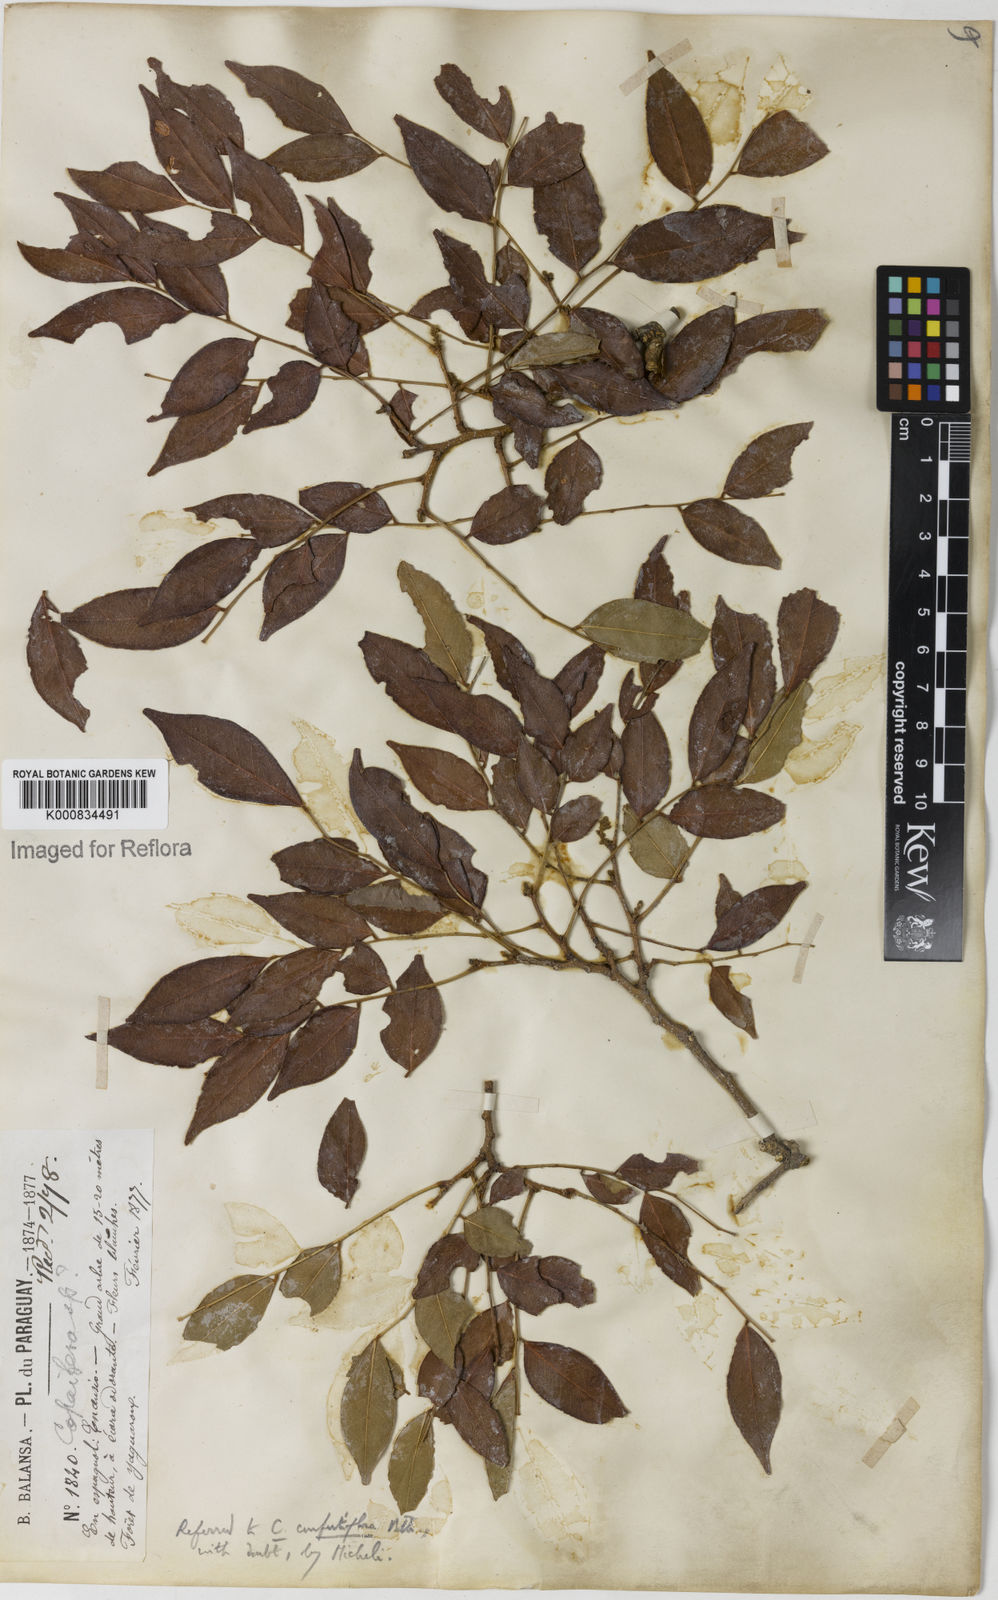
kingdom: Plantae
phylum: Tracheophyta
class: Magnoliopsida
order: Fabales
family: Fabaceae
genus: Copaifera
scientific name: Copaifera
